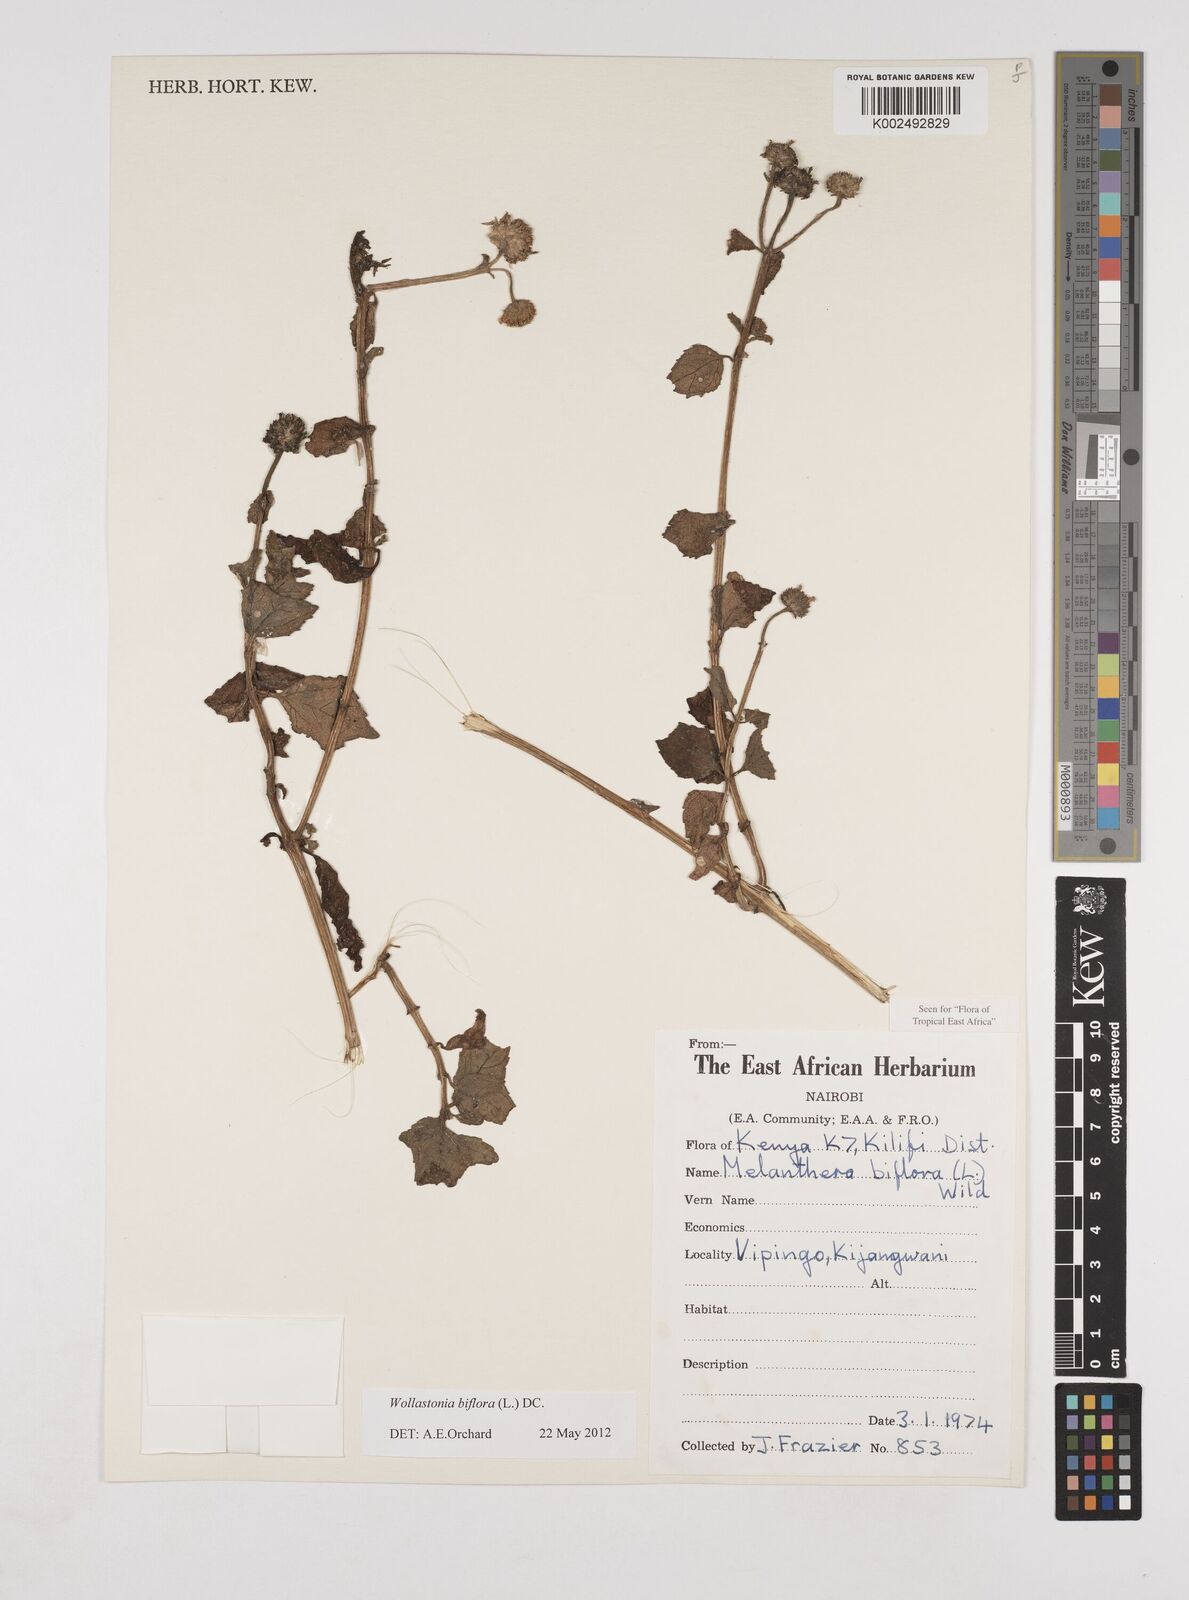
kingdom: Plantae
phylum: Tracheophyta
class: Magnoliopsida
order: Asterales
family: Asteraceae
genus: Wollastonia
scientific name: Wollastonia biflora
